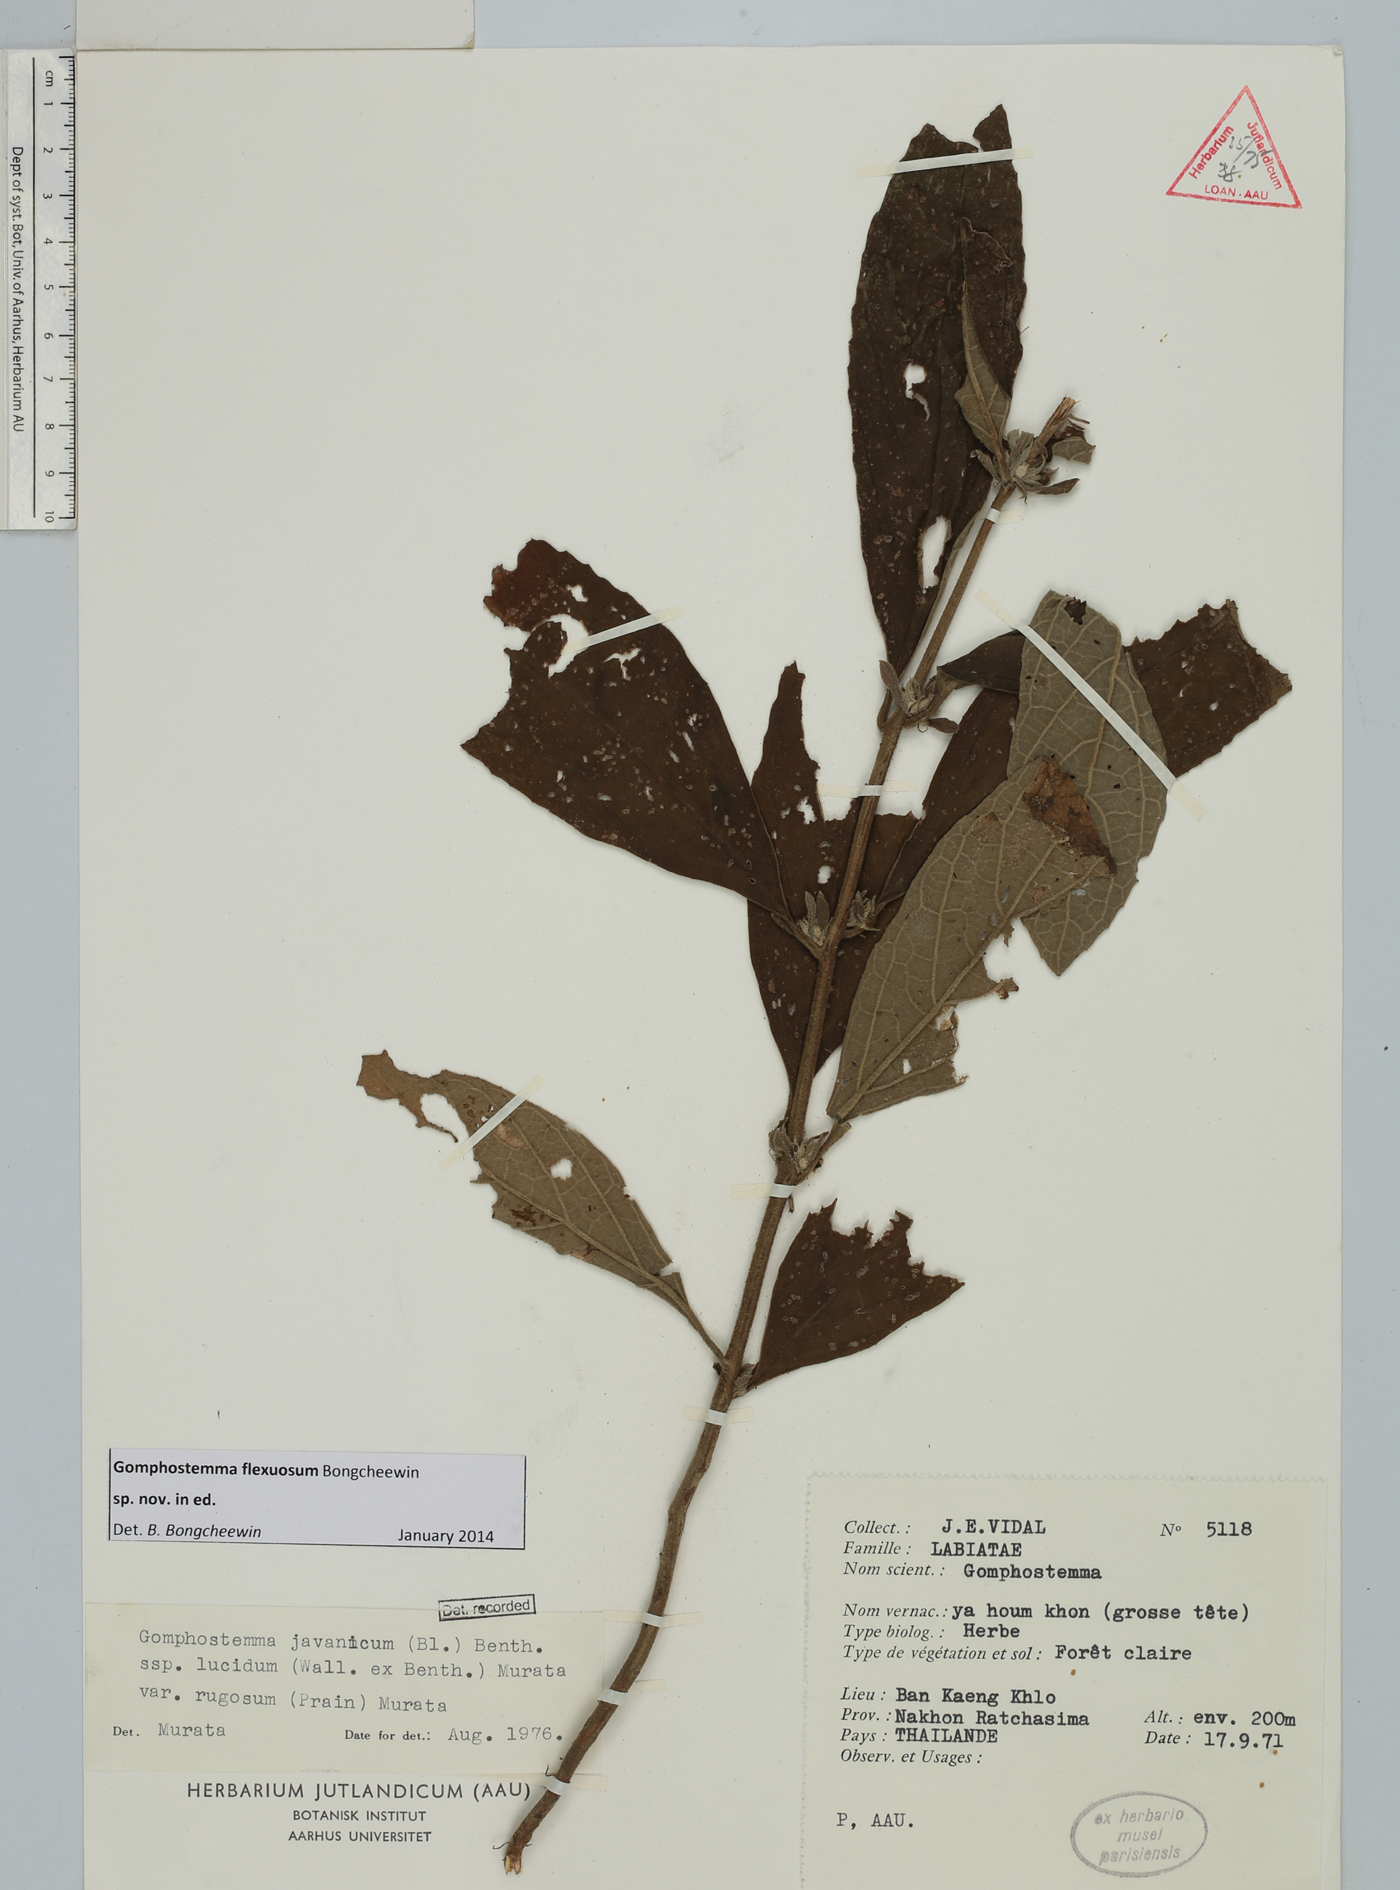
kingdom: Plantae
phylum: Tracheophyta
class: Magnoliopsida
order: Lamiales
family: Lamiaceae
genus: Gomphostemma
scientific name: Gomphostemma
